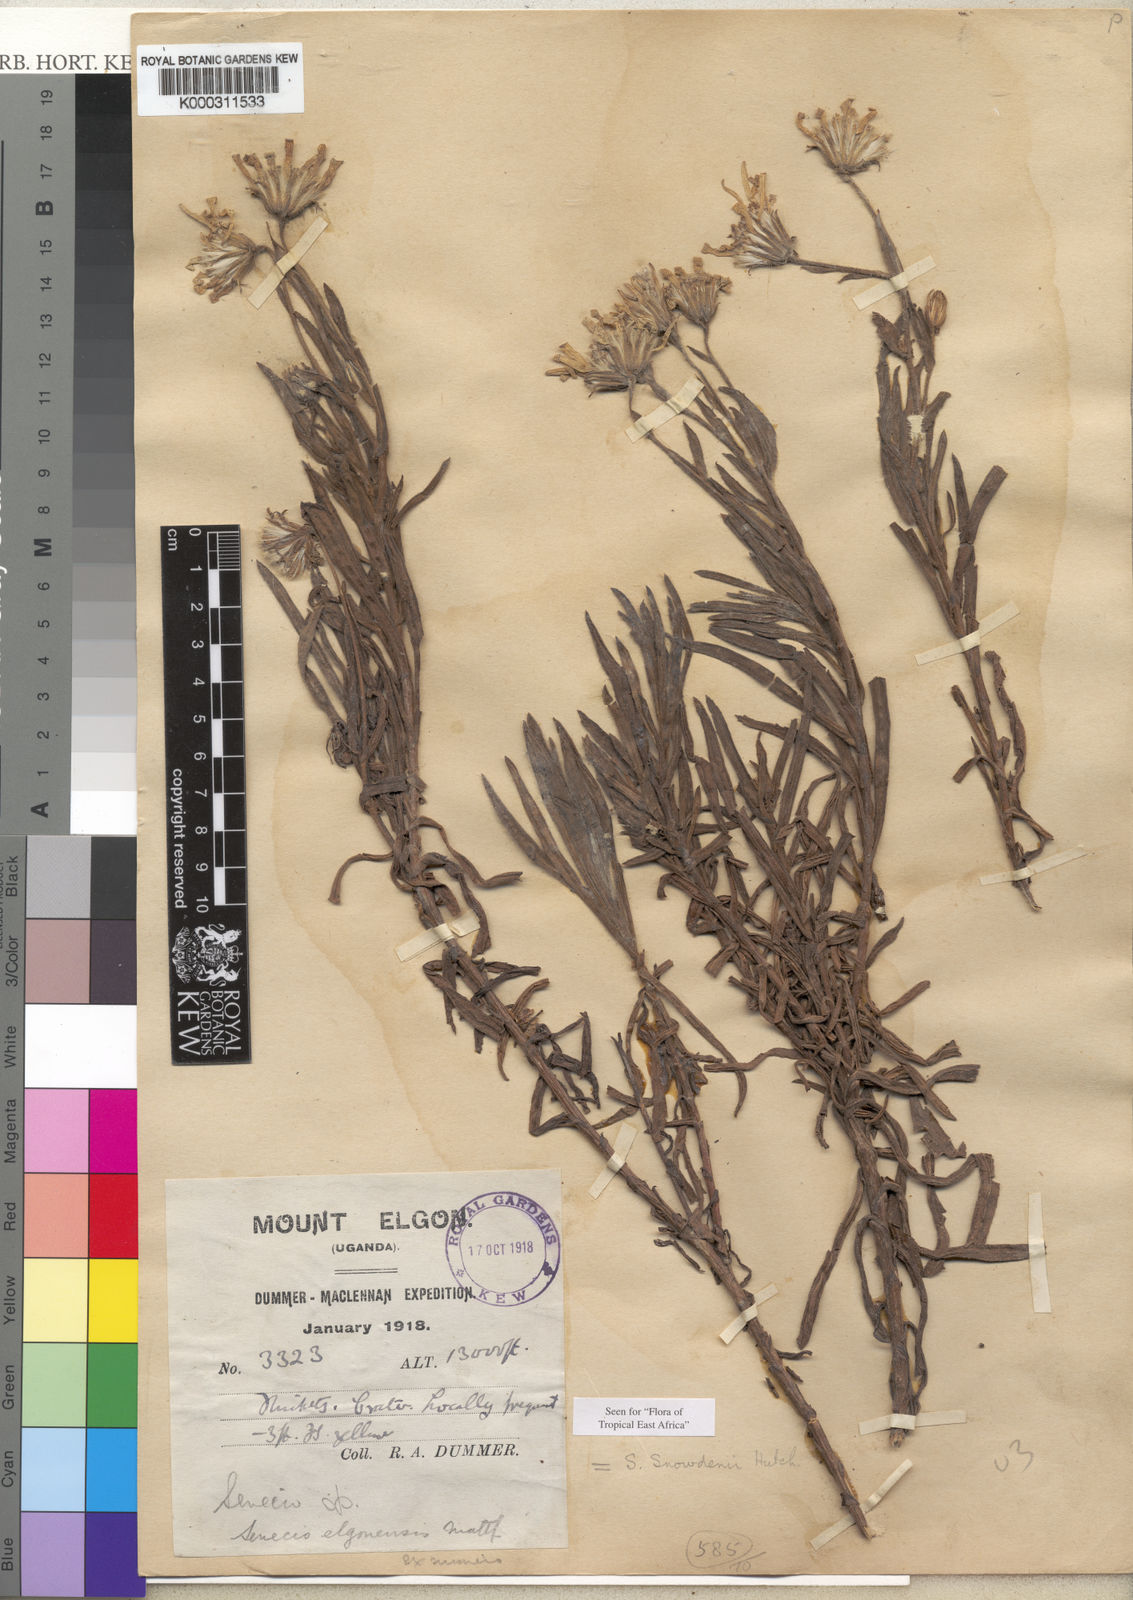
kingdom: Plantae
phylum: Tracheophyta
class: Magnoliopsida
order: Asterales
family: Asteraceae
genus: Senecio
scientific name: Senecio snowdenii
